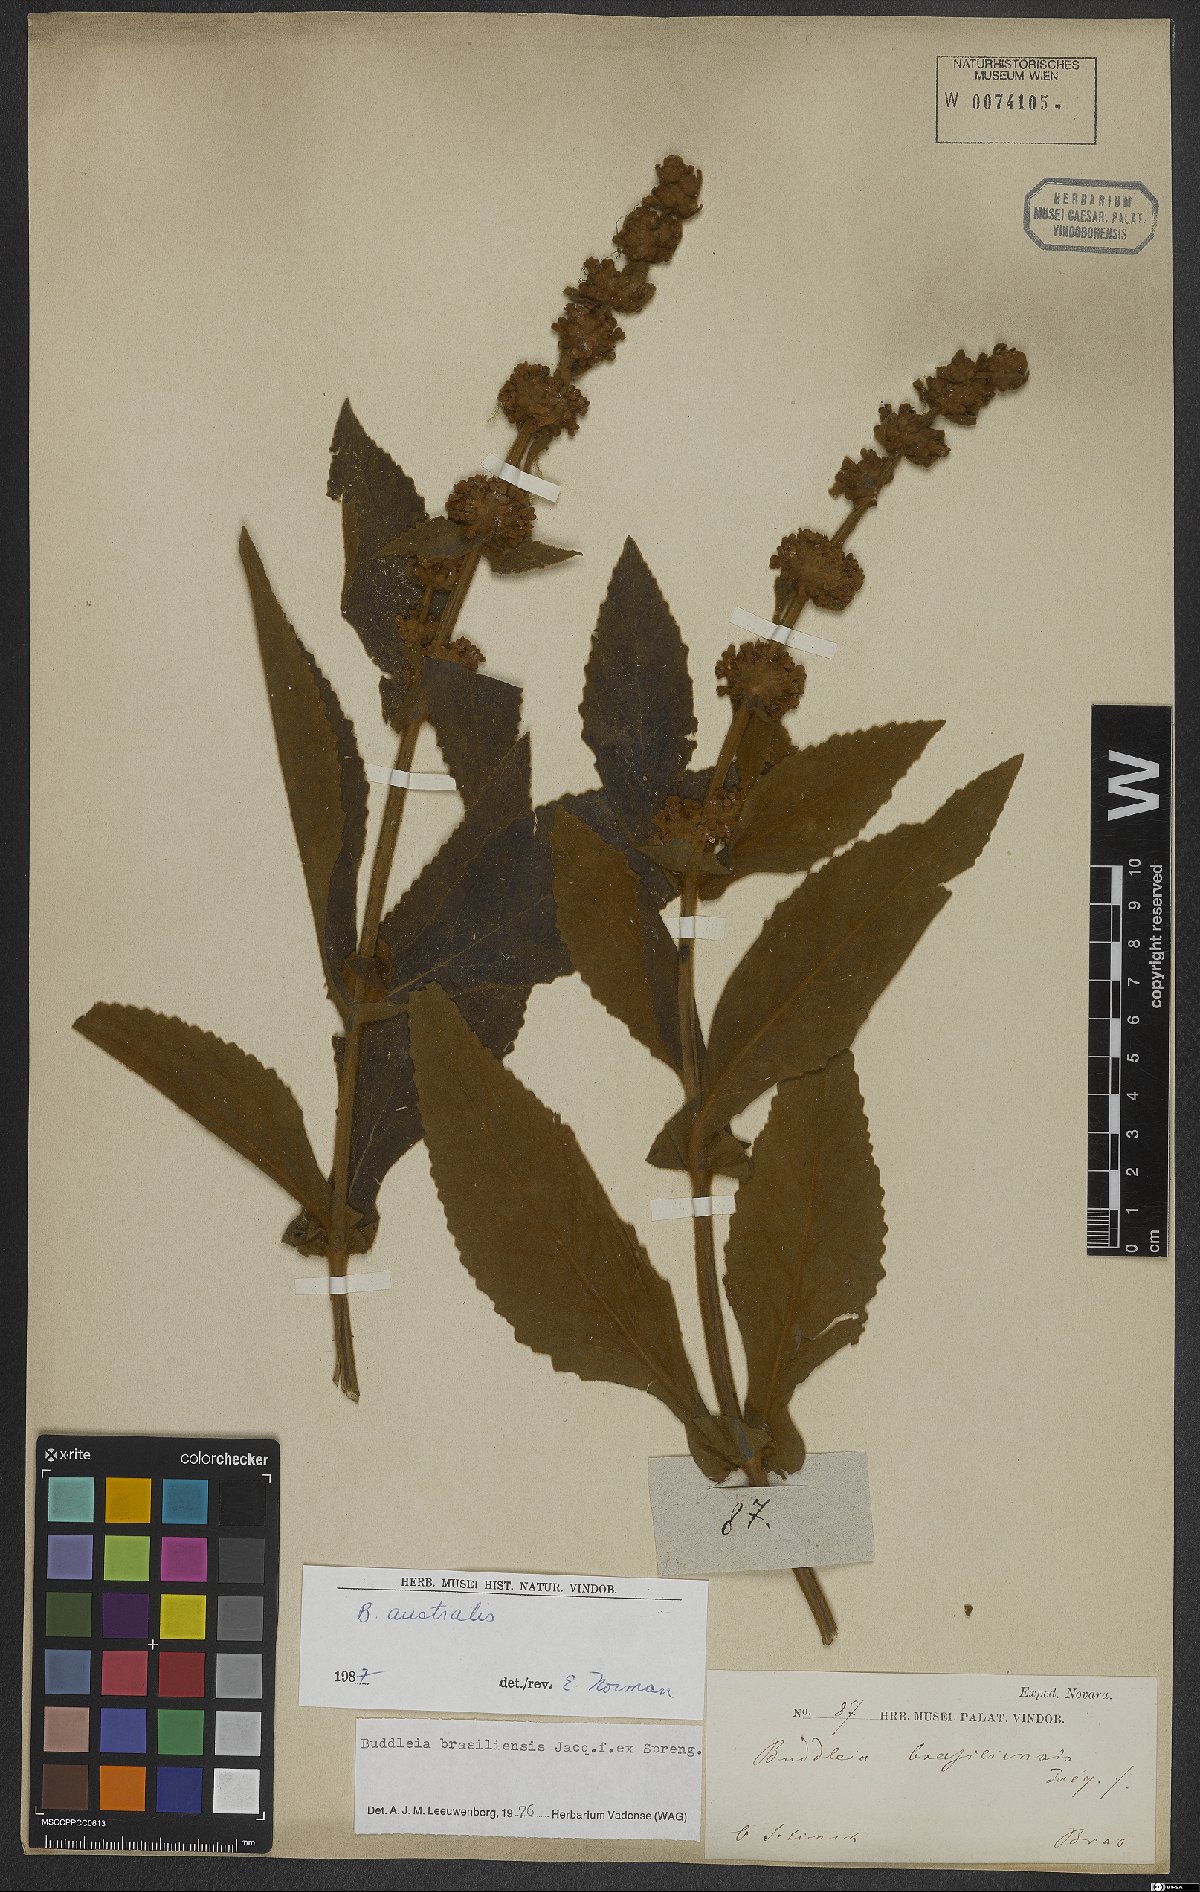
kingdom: Plantae
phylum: Tracheophyta
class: Magnoliopsida
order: Lamiales
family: Scrophulariaceae
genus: Buddleja
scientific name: Buddleja stachyoides
